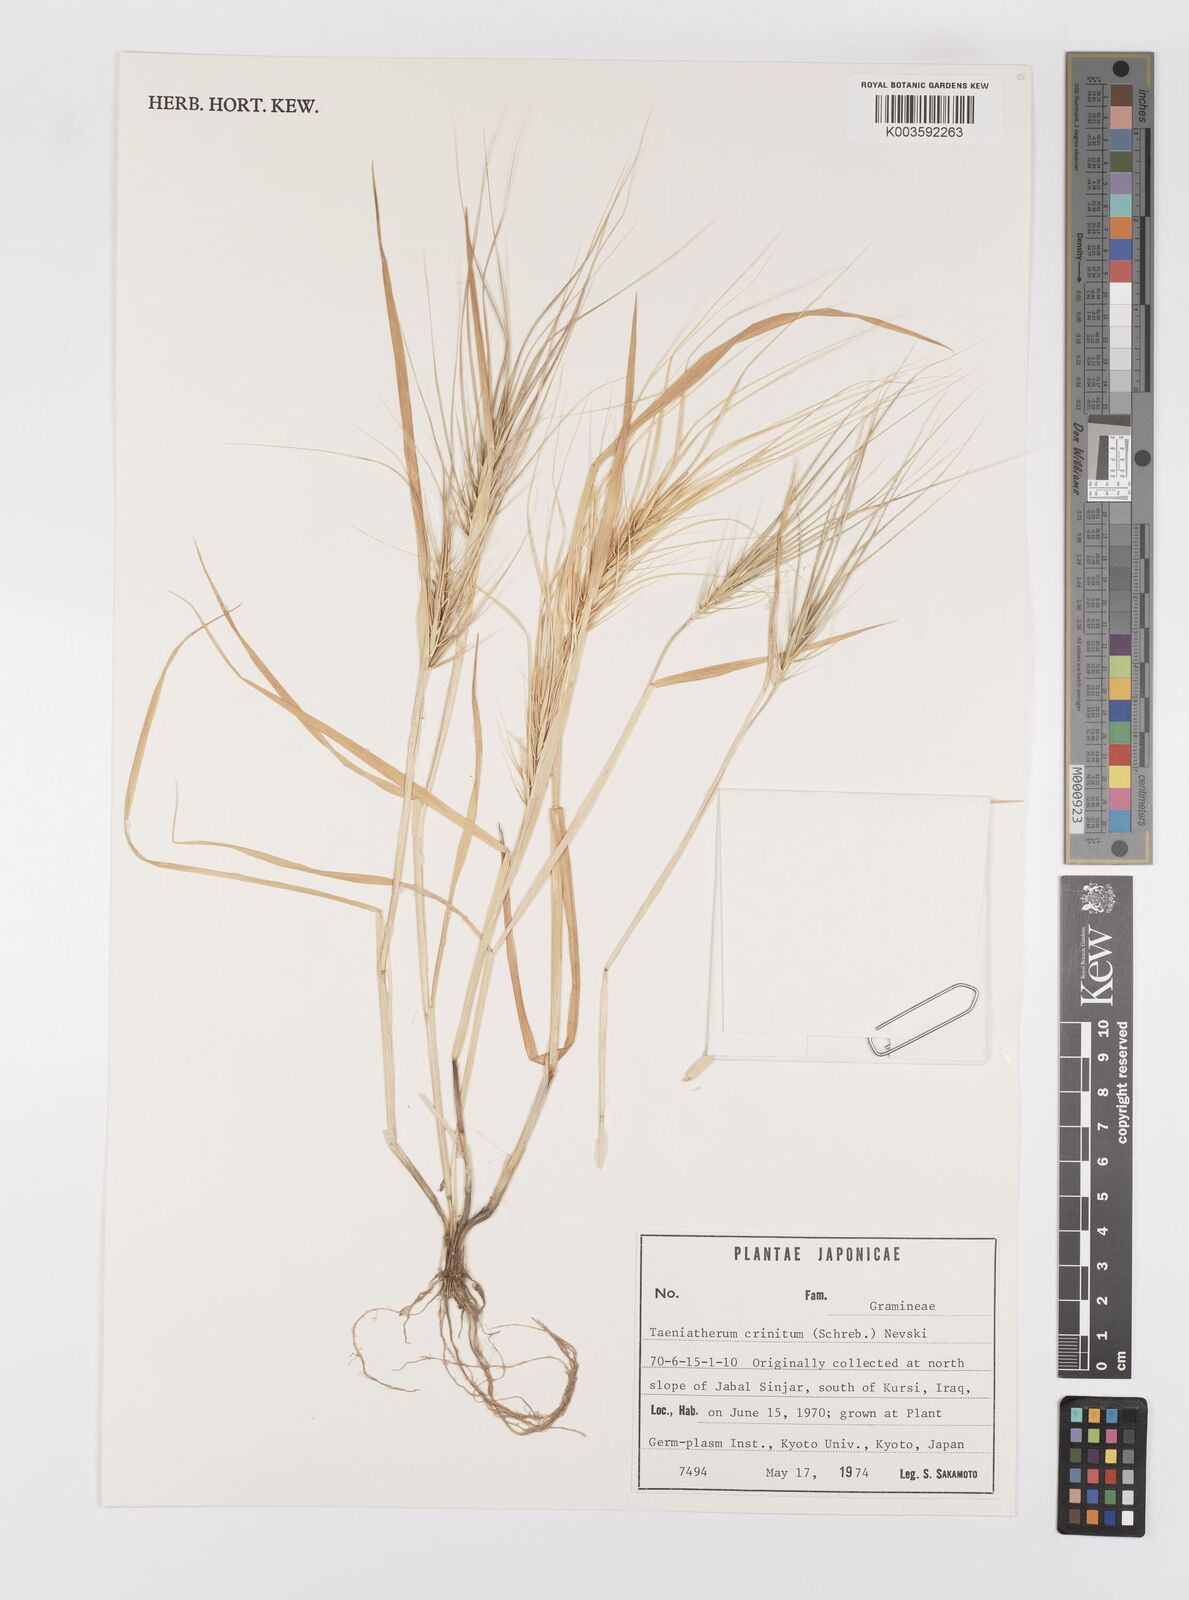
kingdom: Plantae
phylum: Tracheophyta
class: Liliopsida
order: Poales
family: Poaceae
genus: Taeniatherum
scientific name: Taeniatherum caput-medusae
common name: Medusahead
